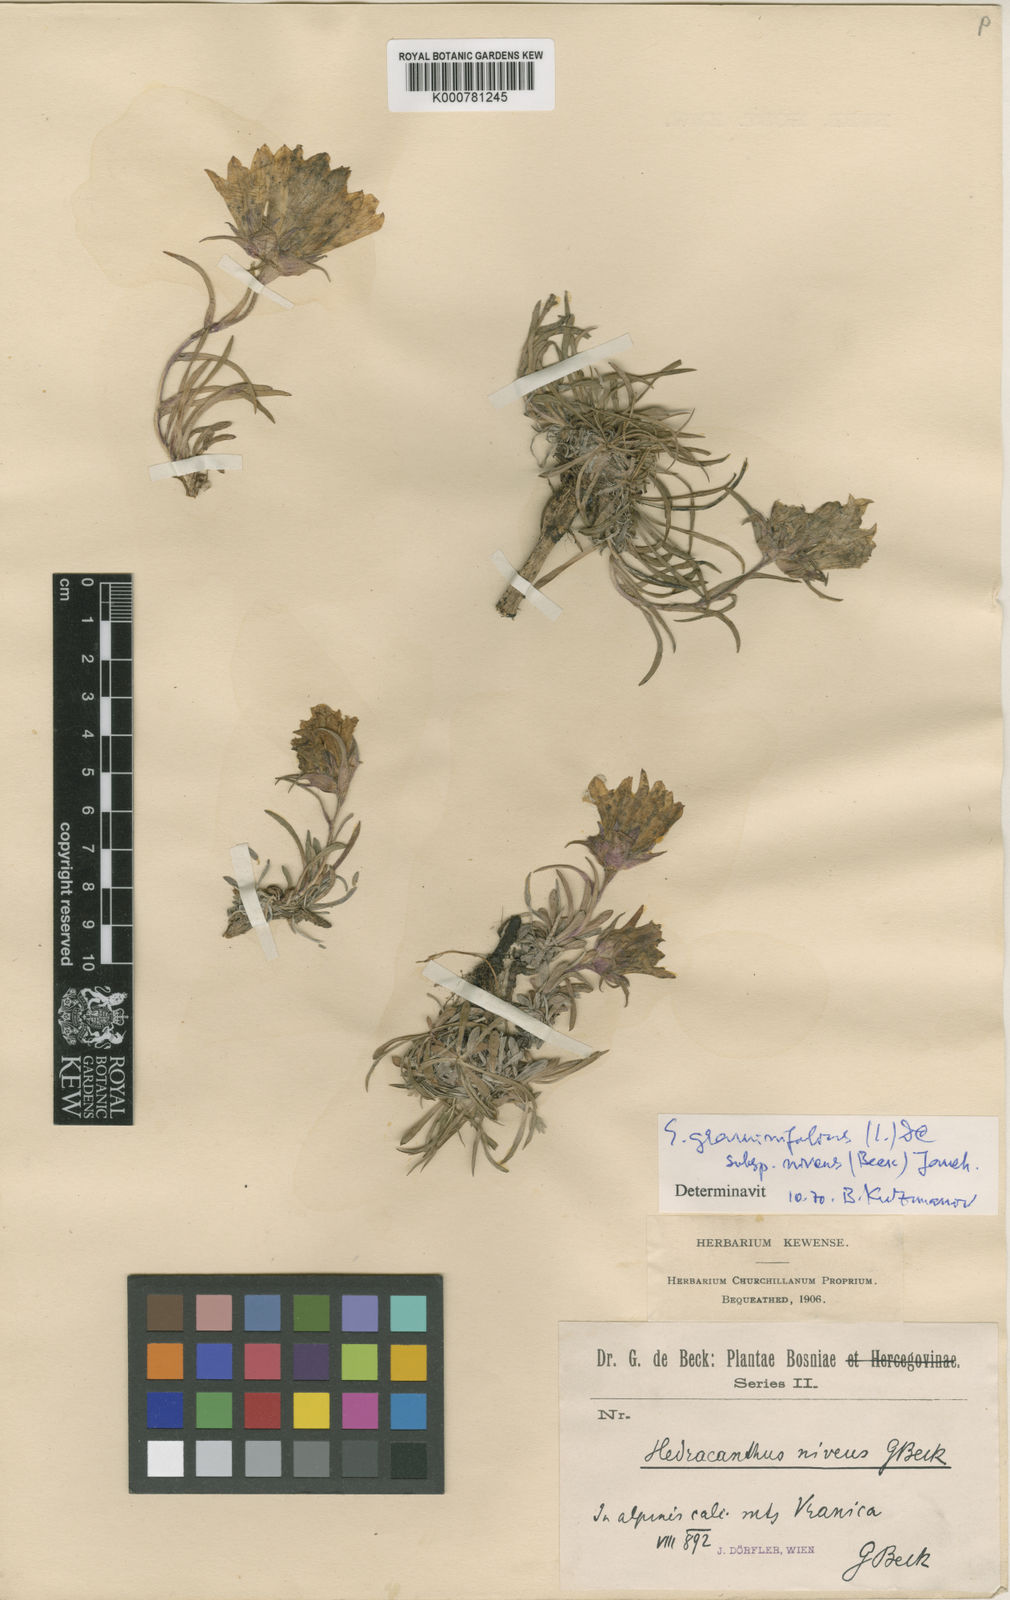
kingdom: Plantae
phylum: Tracheophyta
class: Magnoliopsida
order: Asterales
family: Campanulaceae
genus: Edraianthus
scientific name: Edraianthus niveus
